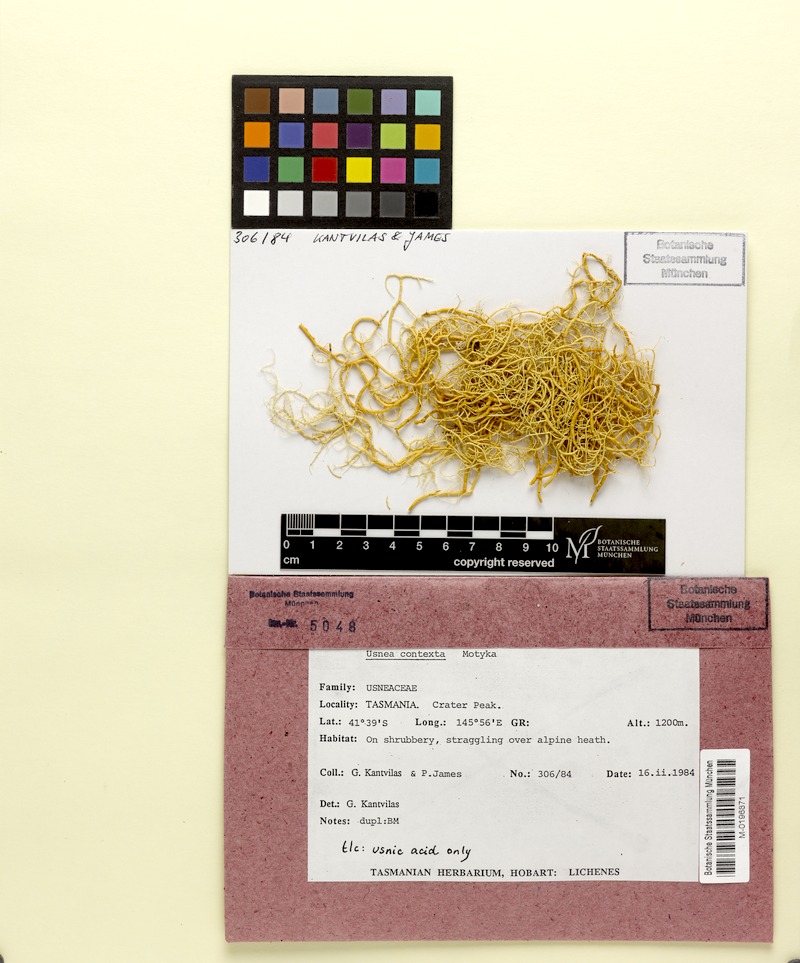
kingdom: Fungi
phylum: Ascomycota
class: Lecanoromycetes
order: Lecanorales
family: Parmeliaceae
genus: Usnea
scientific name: Usnea contexta
